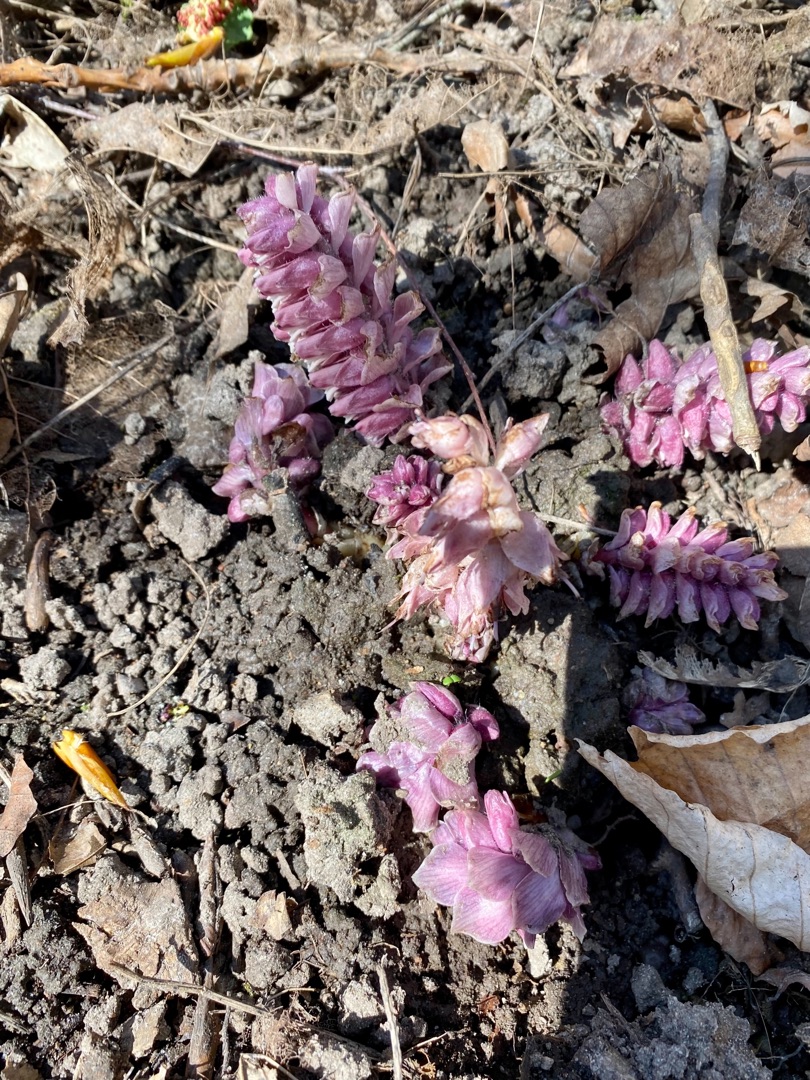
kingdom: Plantae
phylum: Tracheophyta
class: Magnoliopsida
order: Lamiales
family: Orobanchaceae
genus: Lathraea
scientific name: Lathraea squamaria
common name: Skælrod
